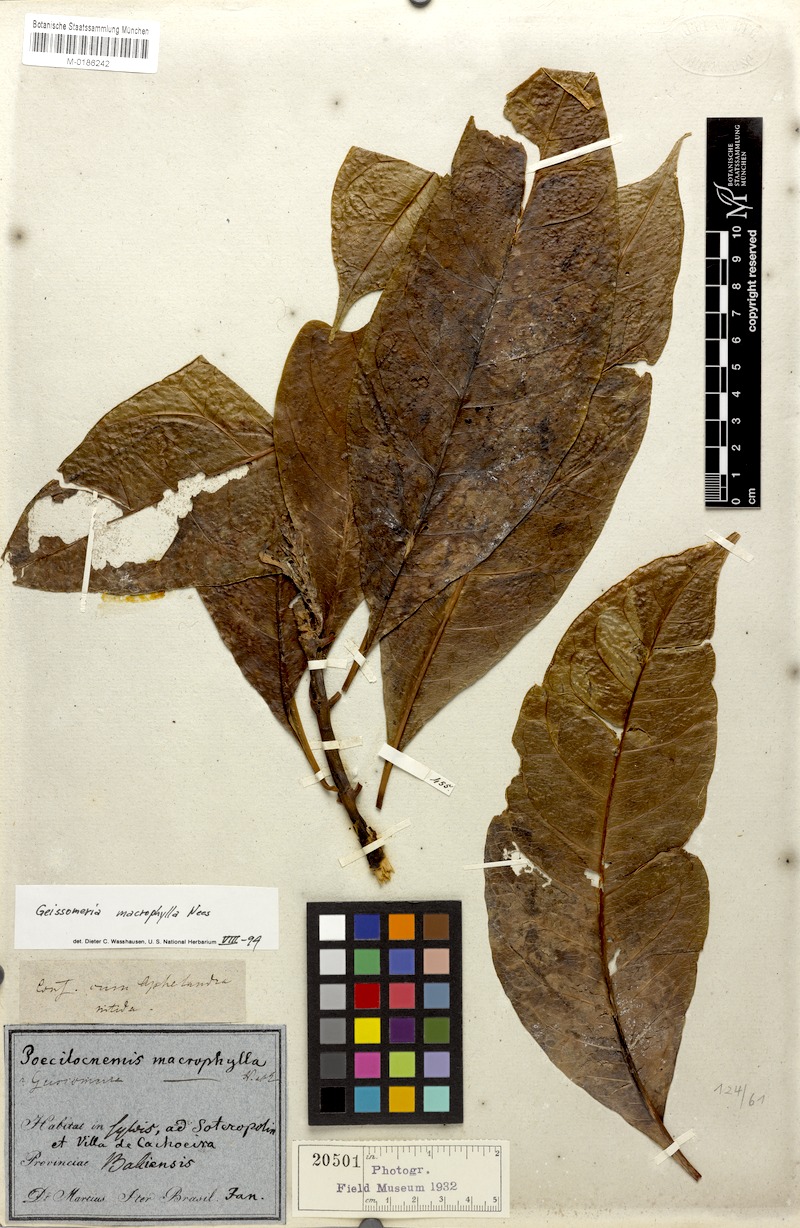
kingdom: Plantae
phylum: Tracheophyta
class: Magnoliopsida
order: Lamiales
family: Acanthaceae
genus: Aphelandra
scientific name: Aphelandra nitida
